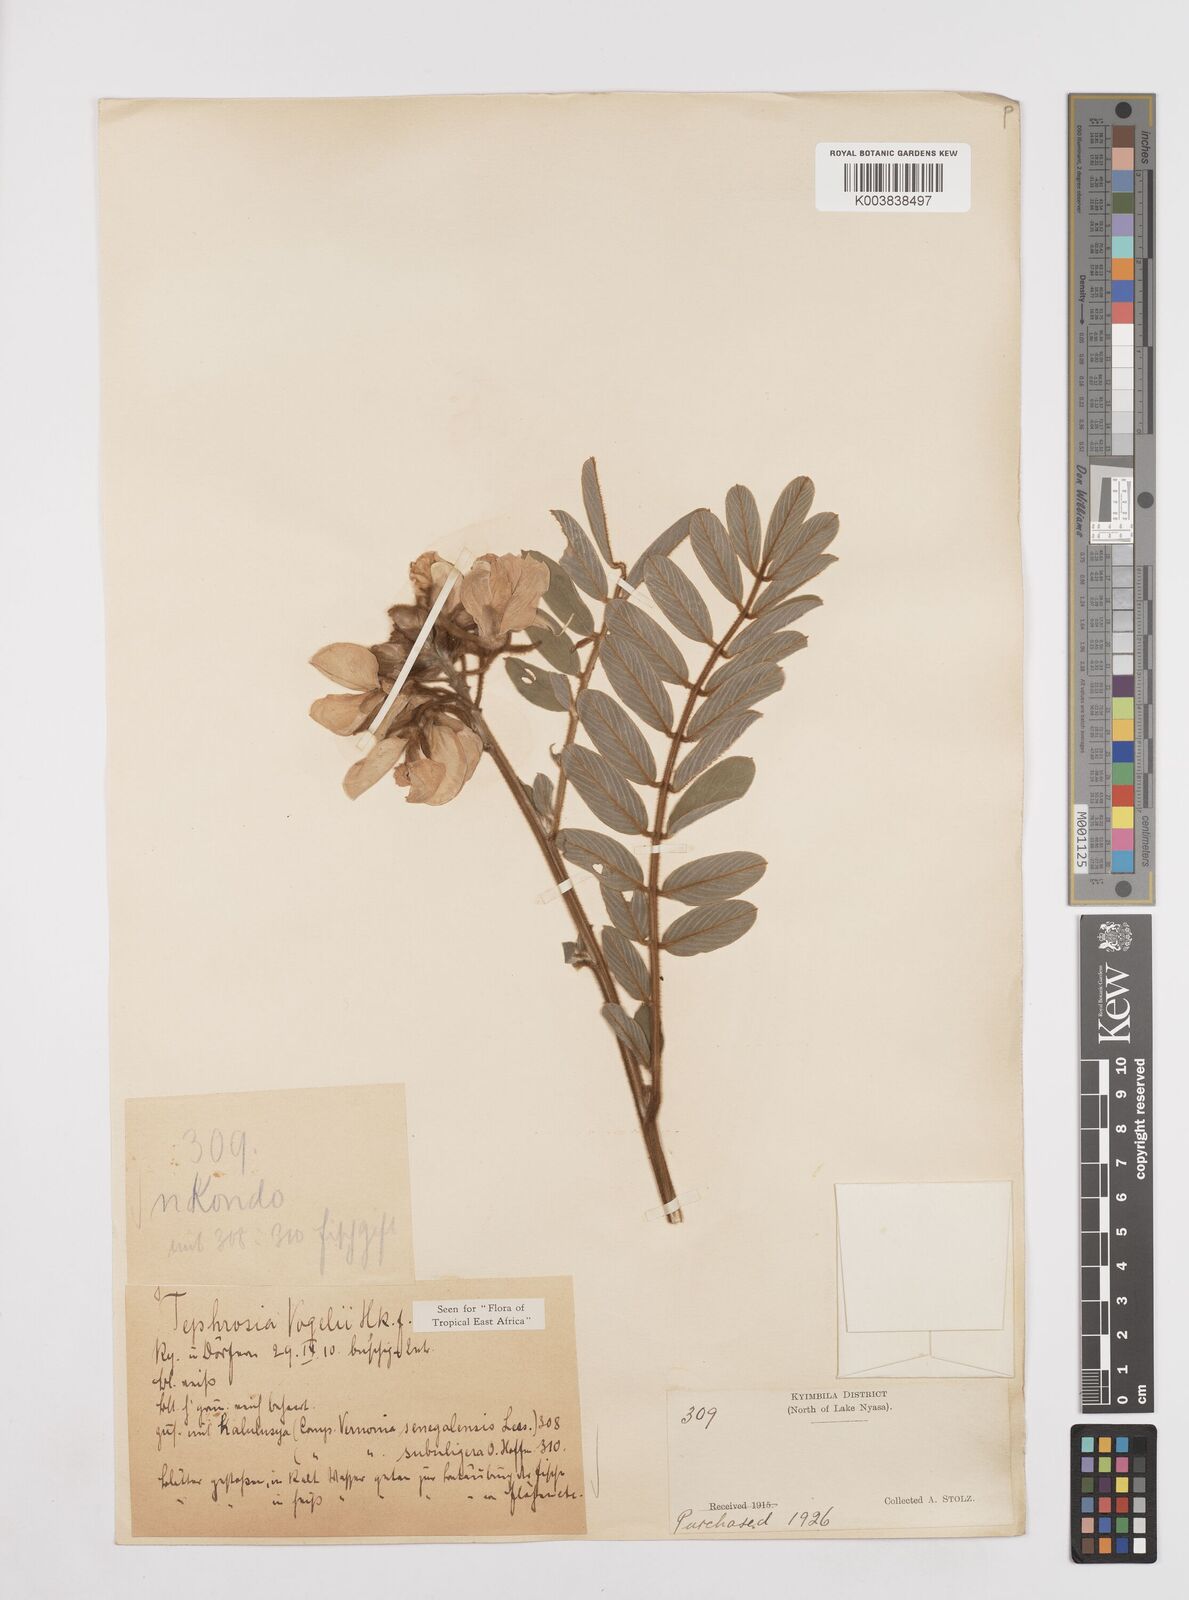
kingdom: Plantae
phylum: Tracheophyta
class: Magnoliopsida
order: Fabales
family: Fabaceae
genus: Tephrosia
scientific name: Tephrosia vogelii
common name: Vogel tephrosia
